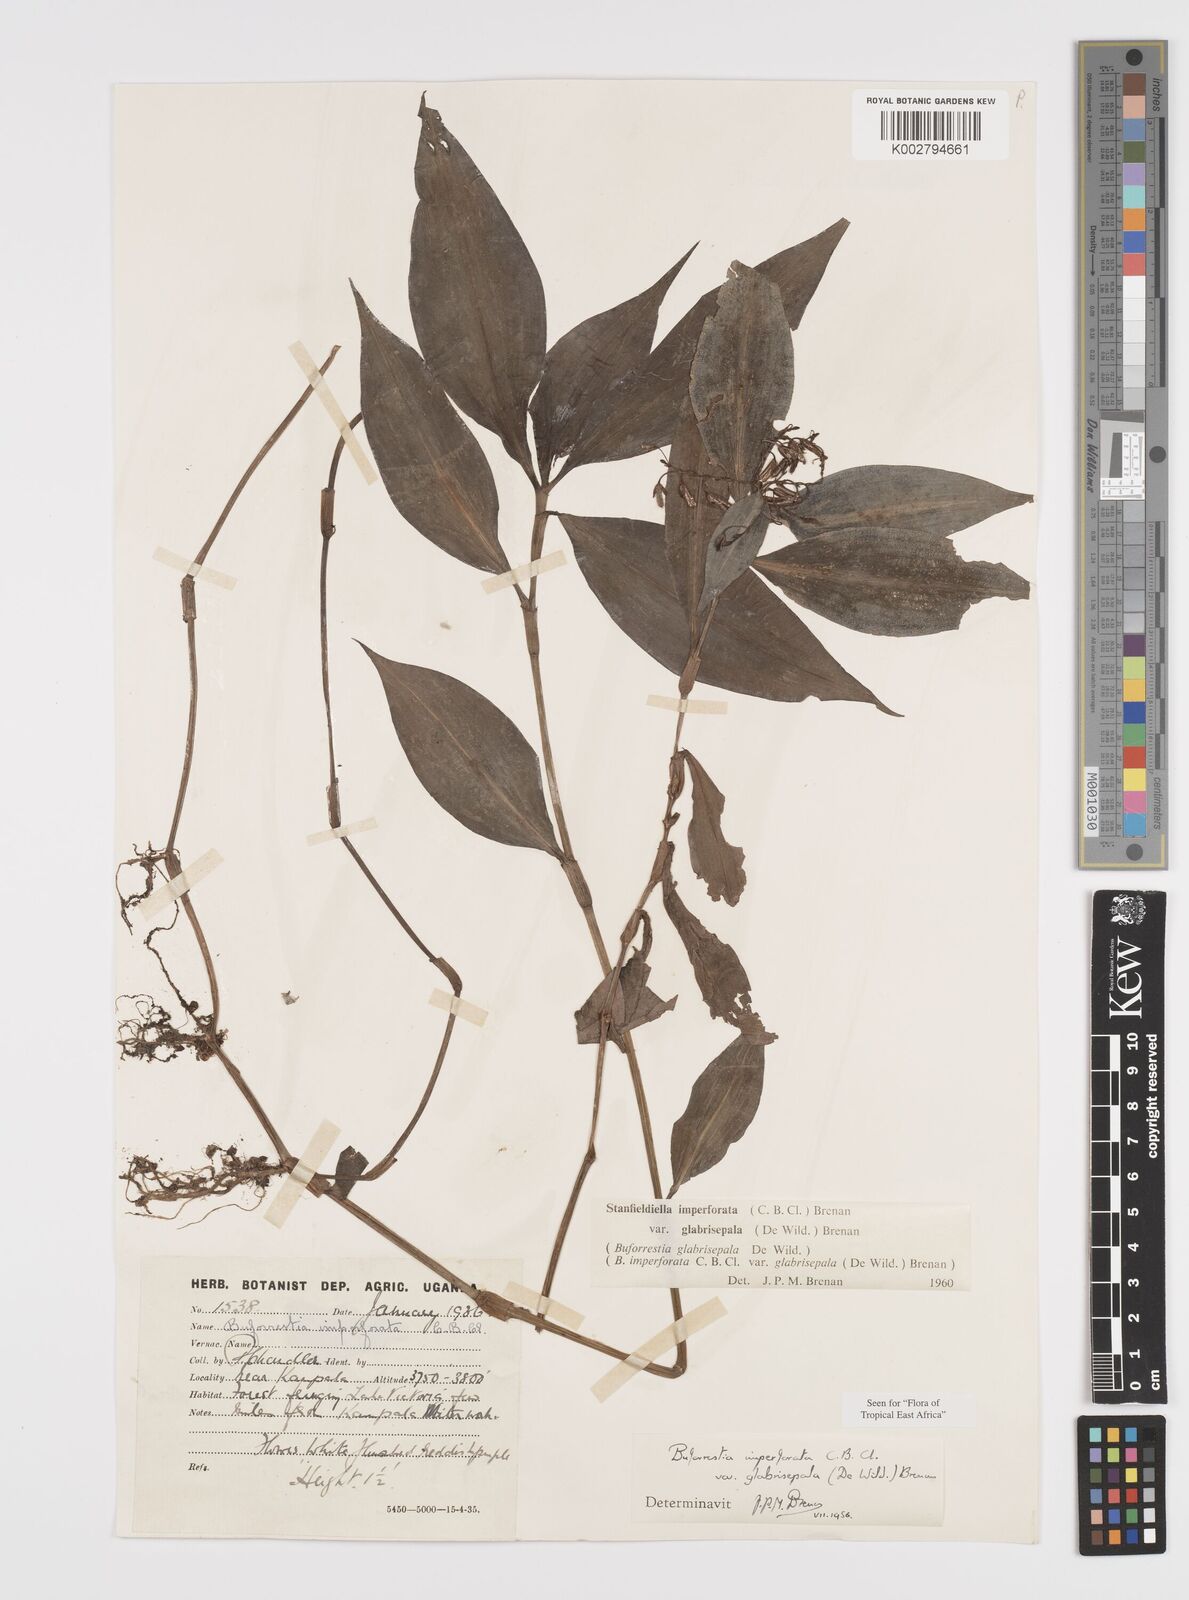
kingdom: Plantae
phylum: Tracheophyta
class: Liliopsida
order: Commelinales
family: Commelinaceae
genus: Stanfieldiella
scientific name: Stanfieldiella imperforata
